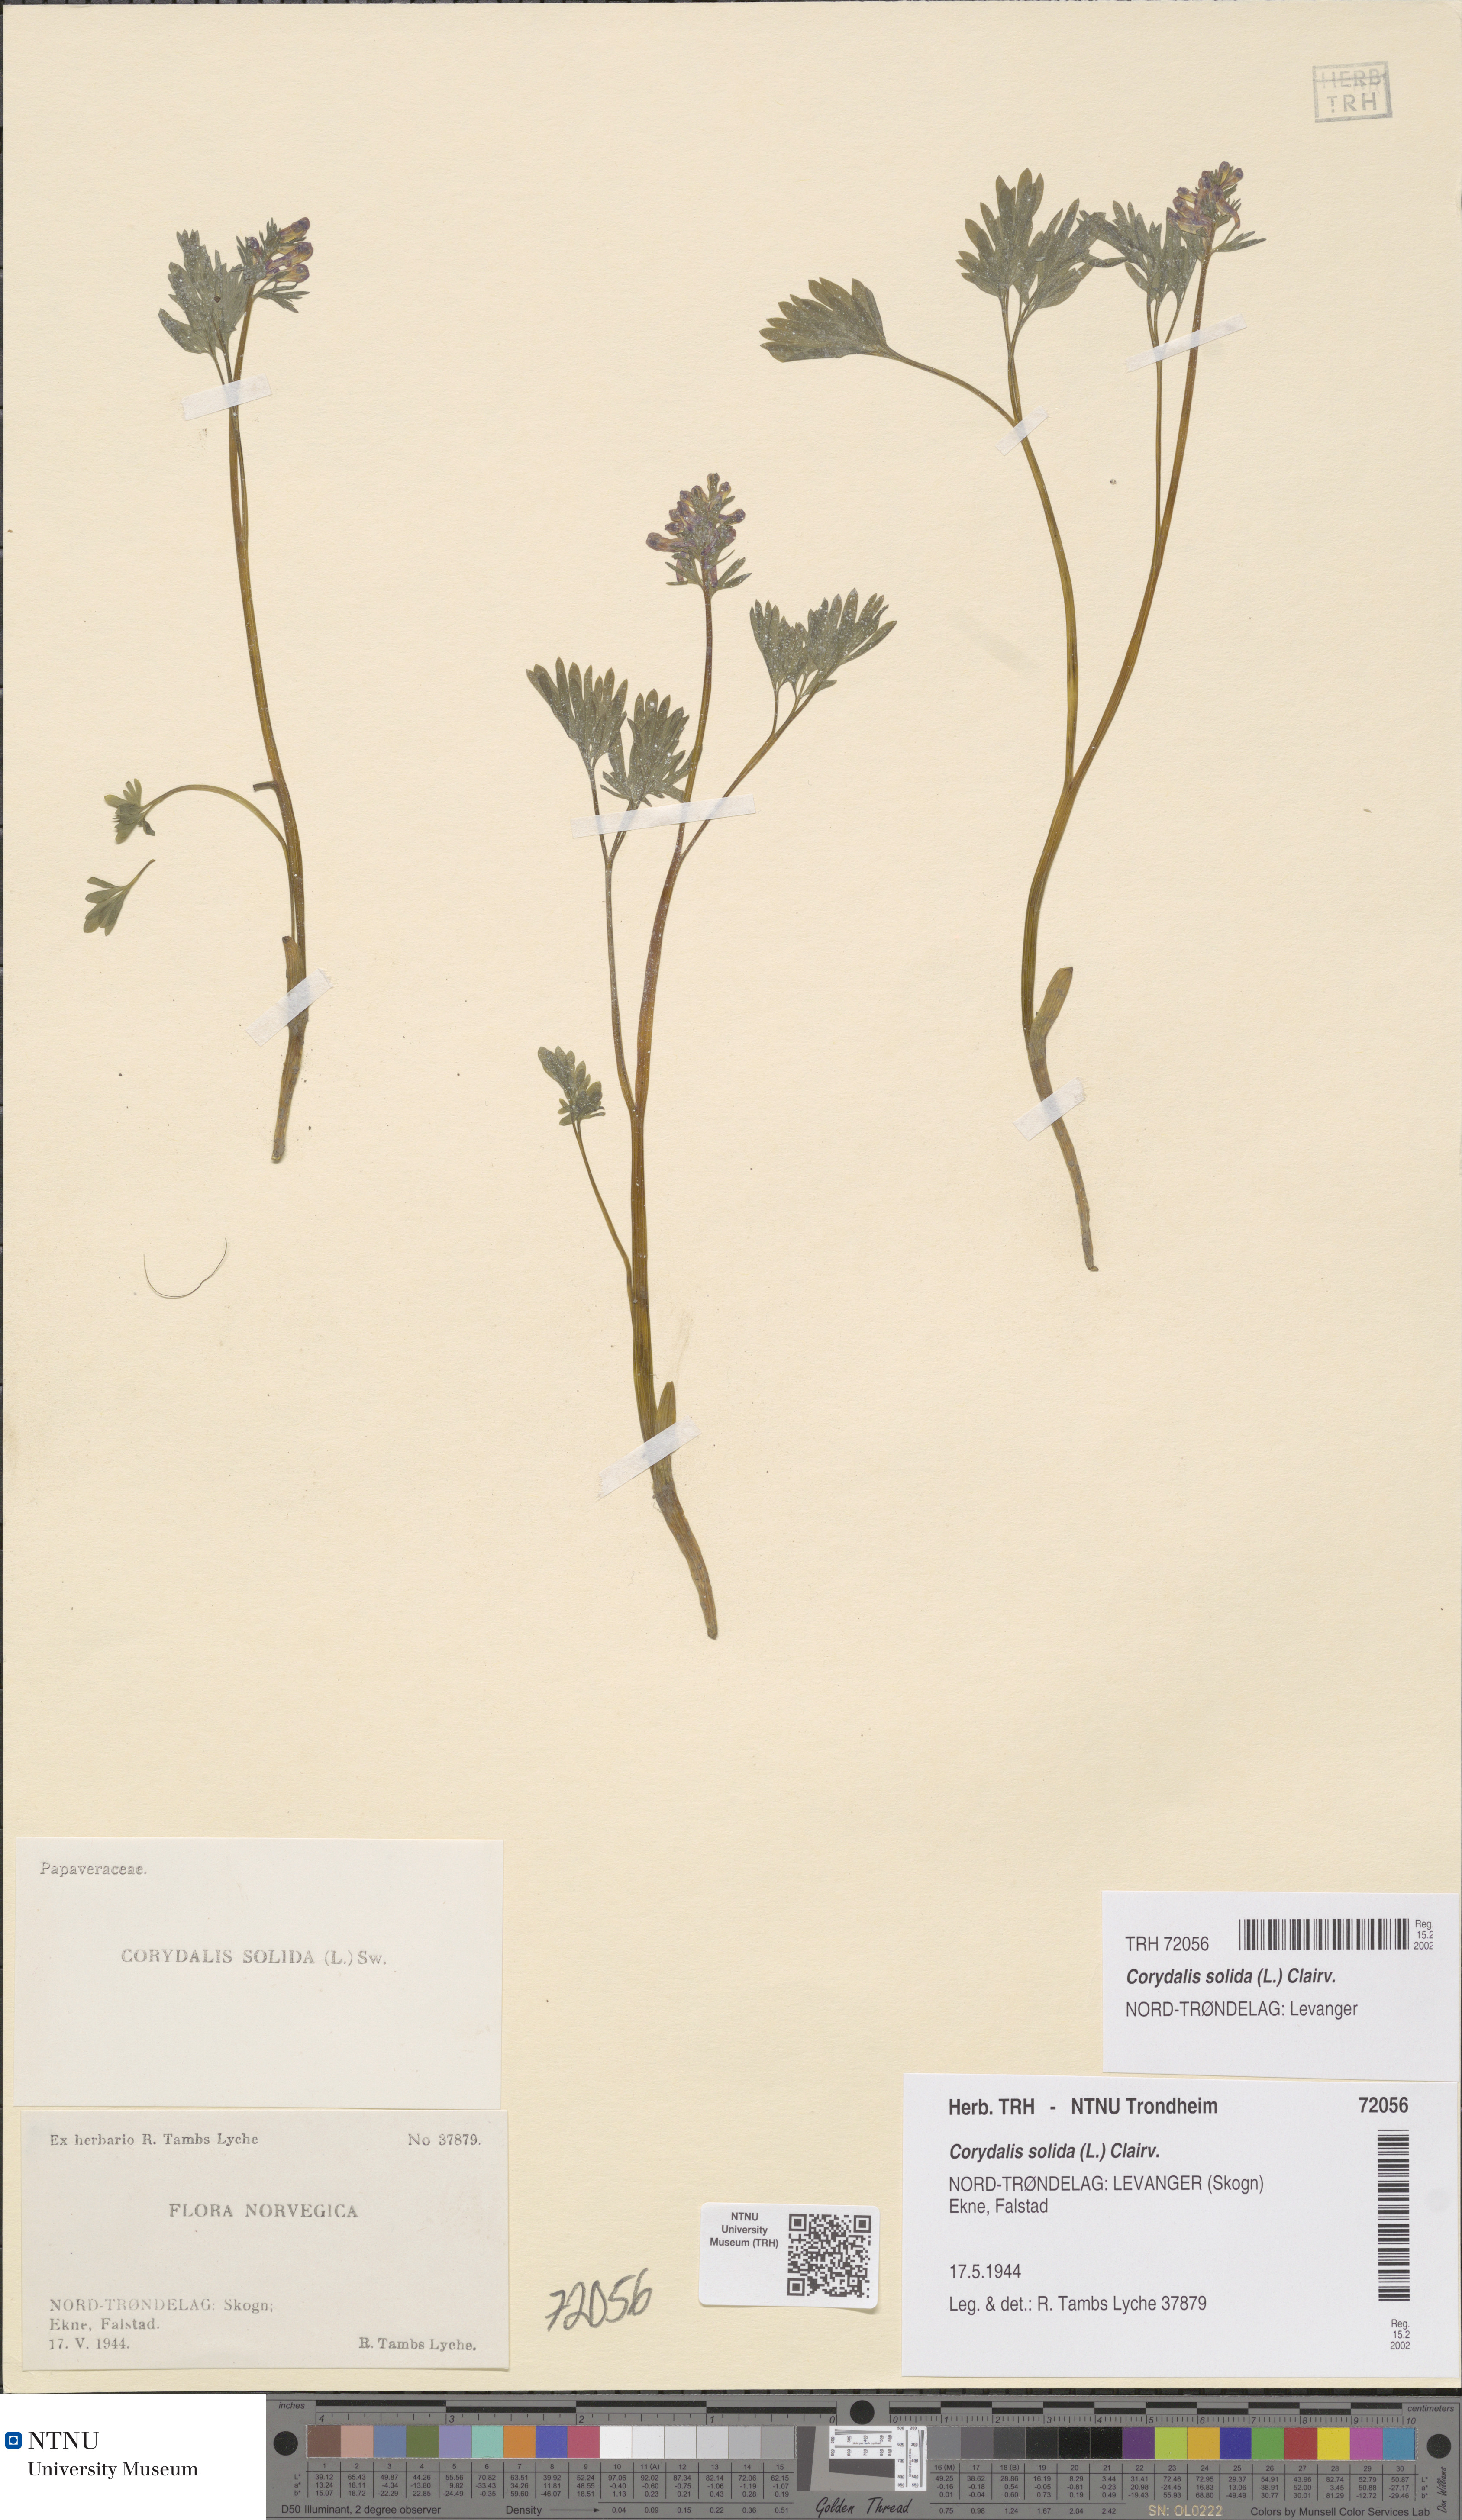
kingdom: Plantae
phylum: Tracheophyta
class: Magnoliopsida
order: Ranunculales
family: Papaveraceae
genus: Corydalis
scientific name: Corydalis solida
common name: Bird-in-a-bush
